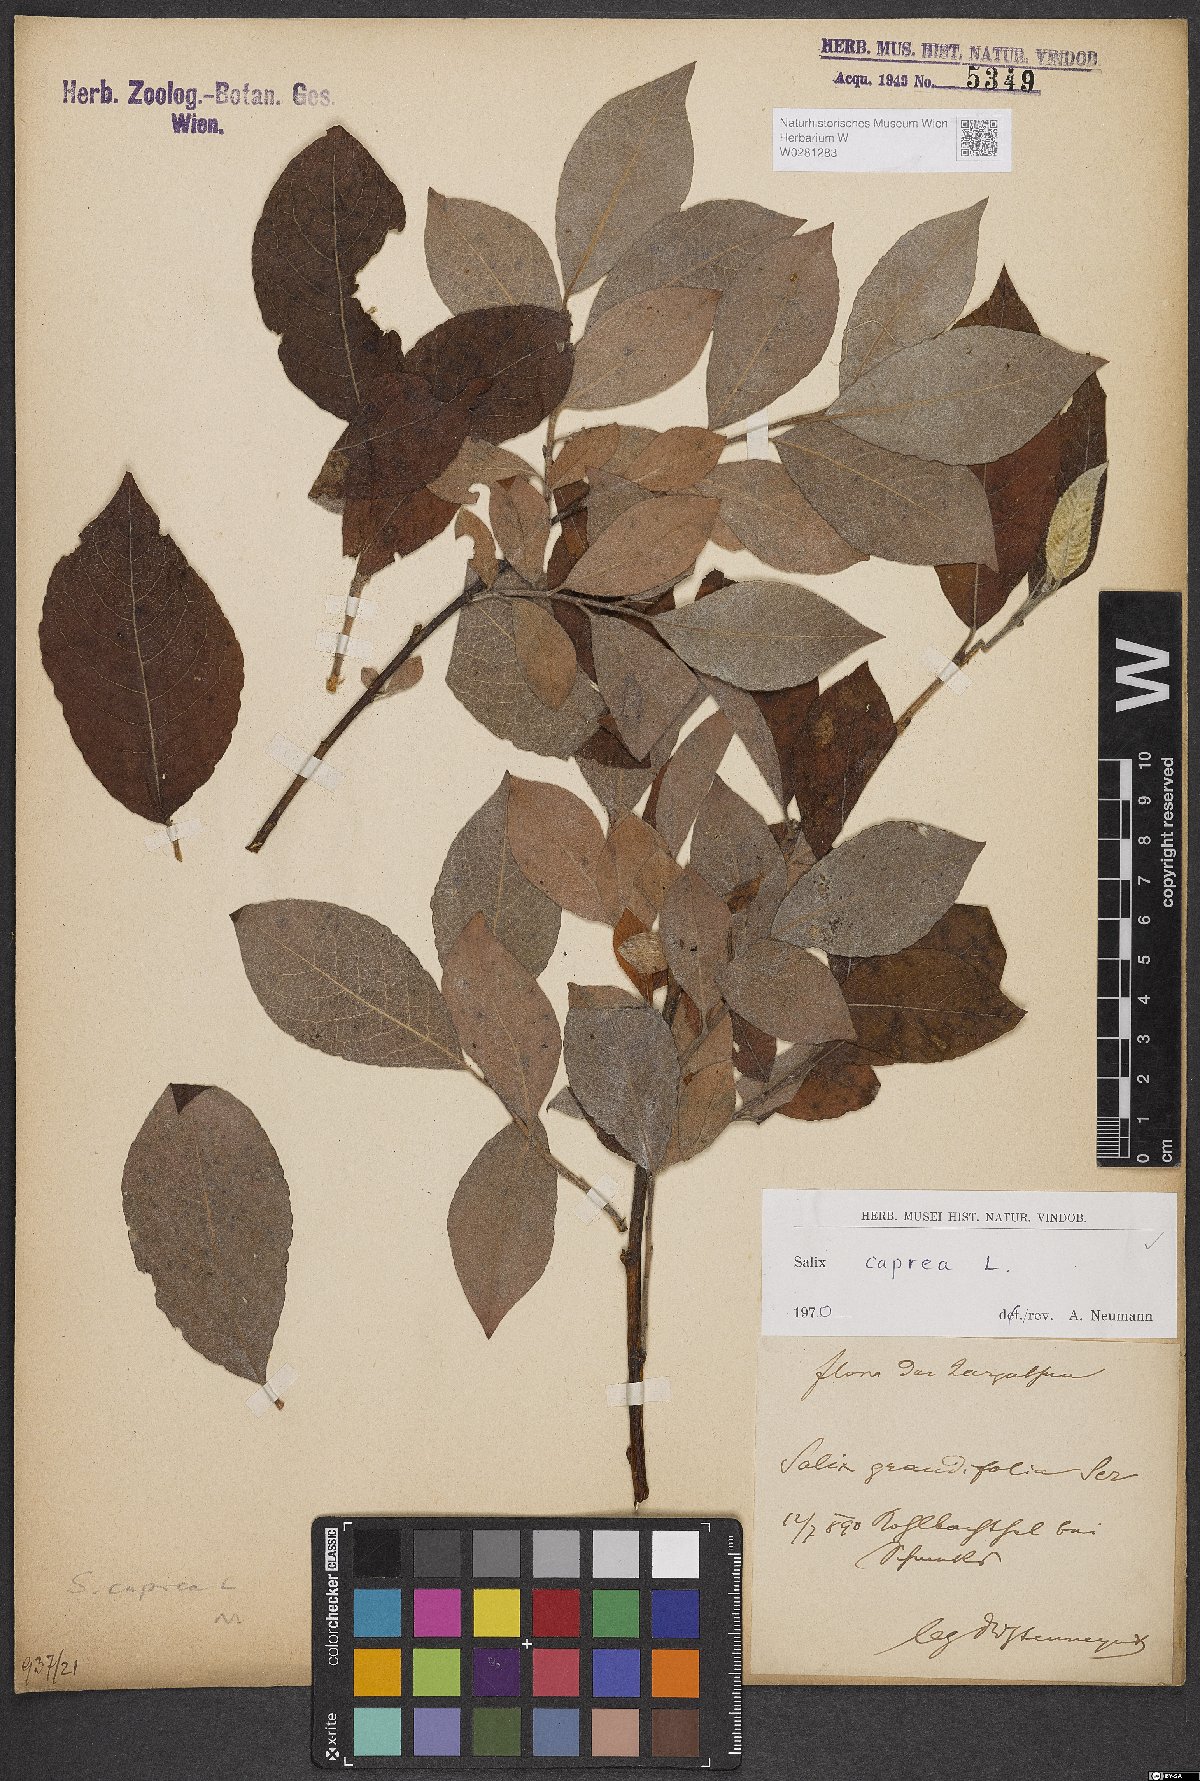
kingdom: Plantae
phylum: Tracheophyta
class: Magnoliopsida
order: Malpighiales
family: Salicaceae
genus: Salix
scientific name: Salix caprea
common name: Goat willow
